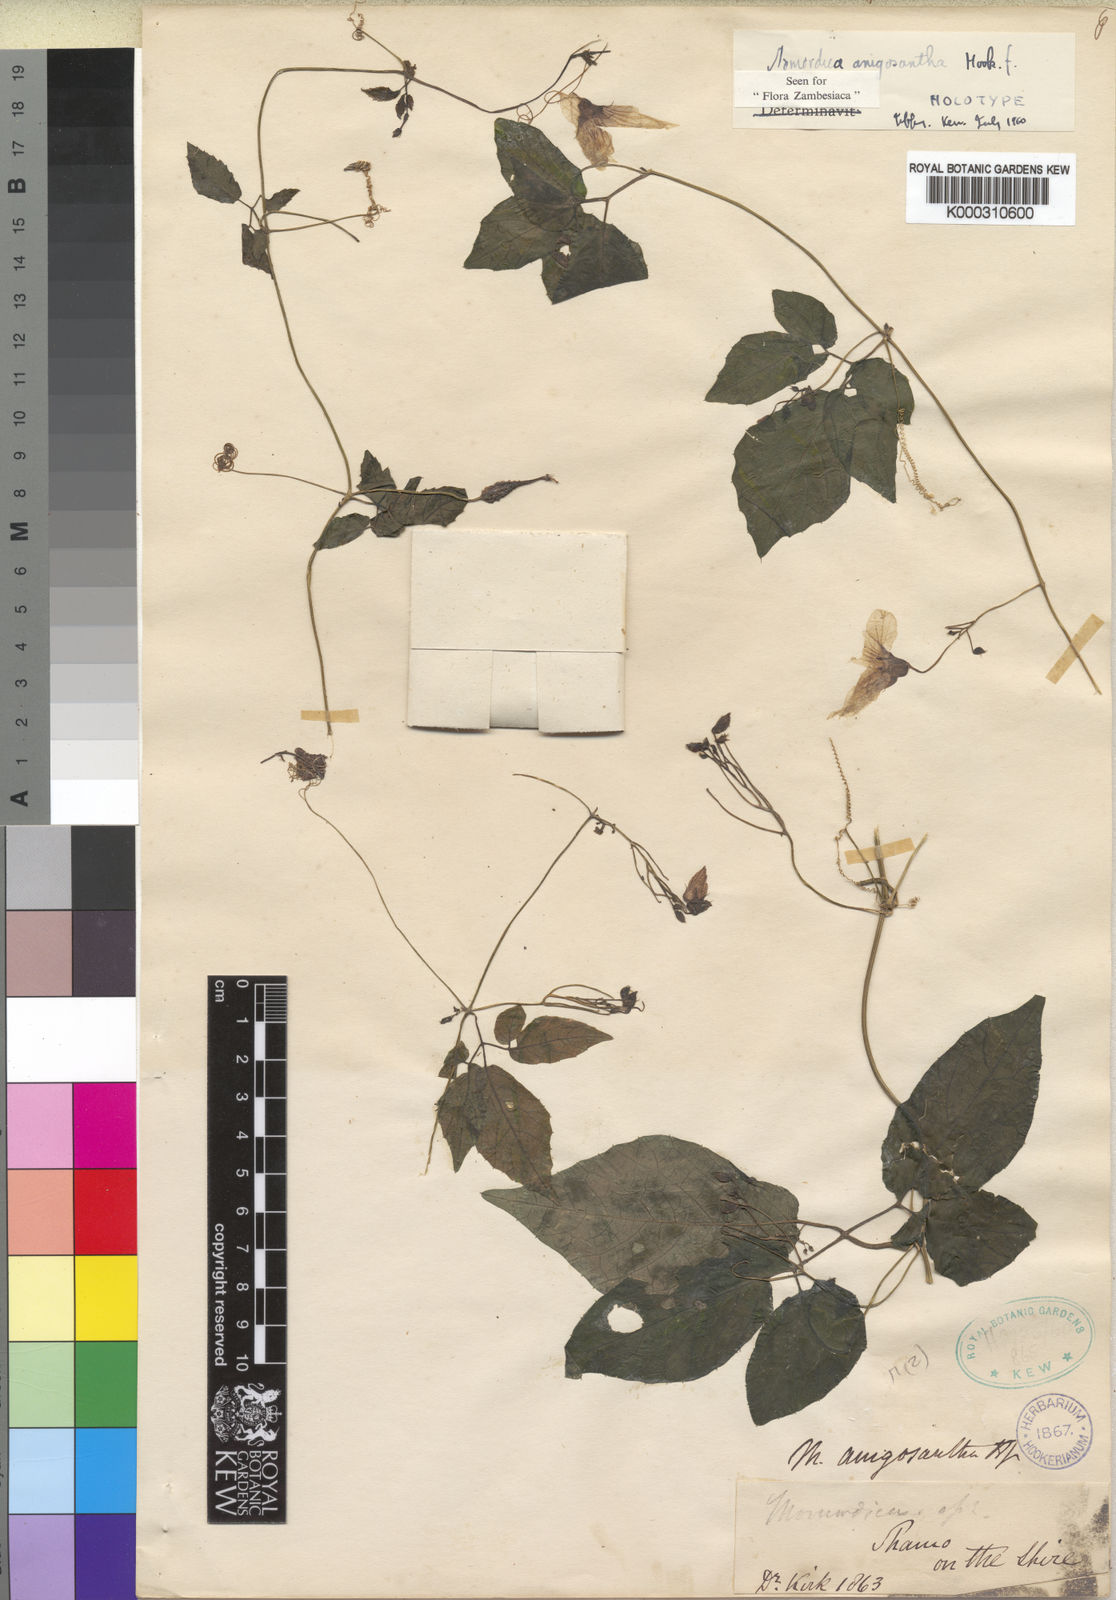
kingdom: Plantae
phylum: Tracheophyta
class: Magnoliopsida
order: Cucurbitales
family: Cucurbitaceae
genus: Momordica
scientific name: Momordica anigosantha
